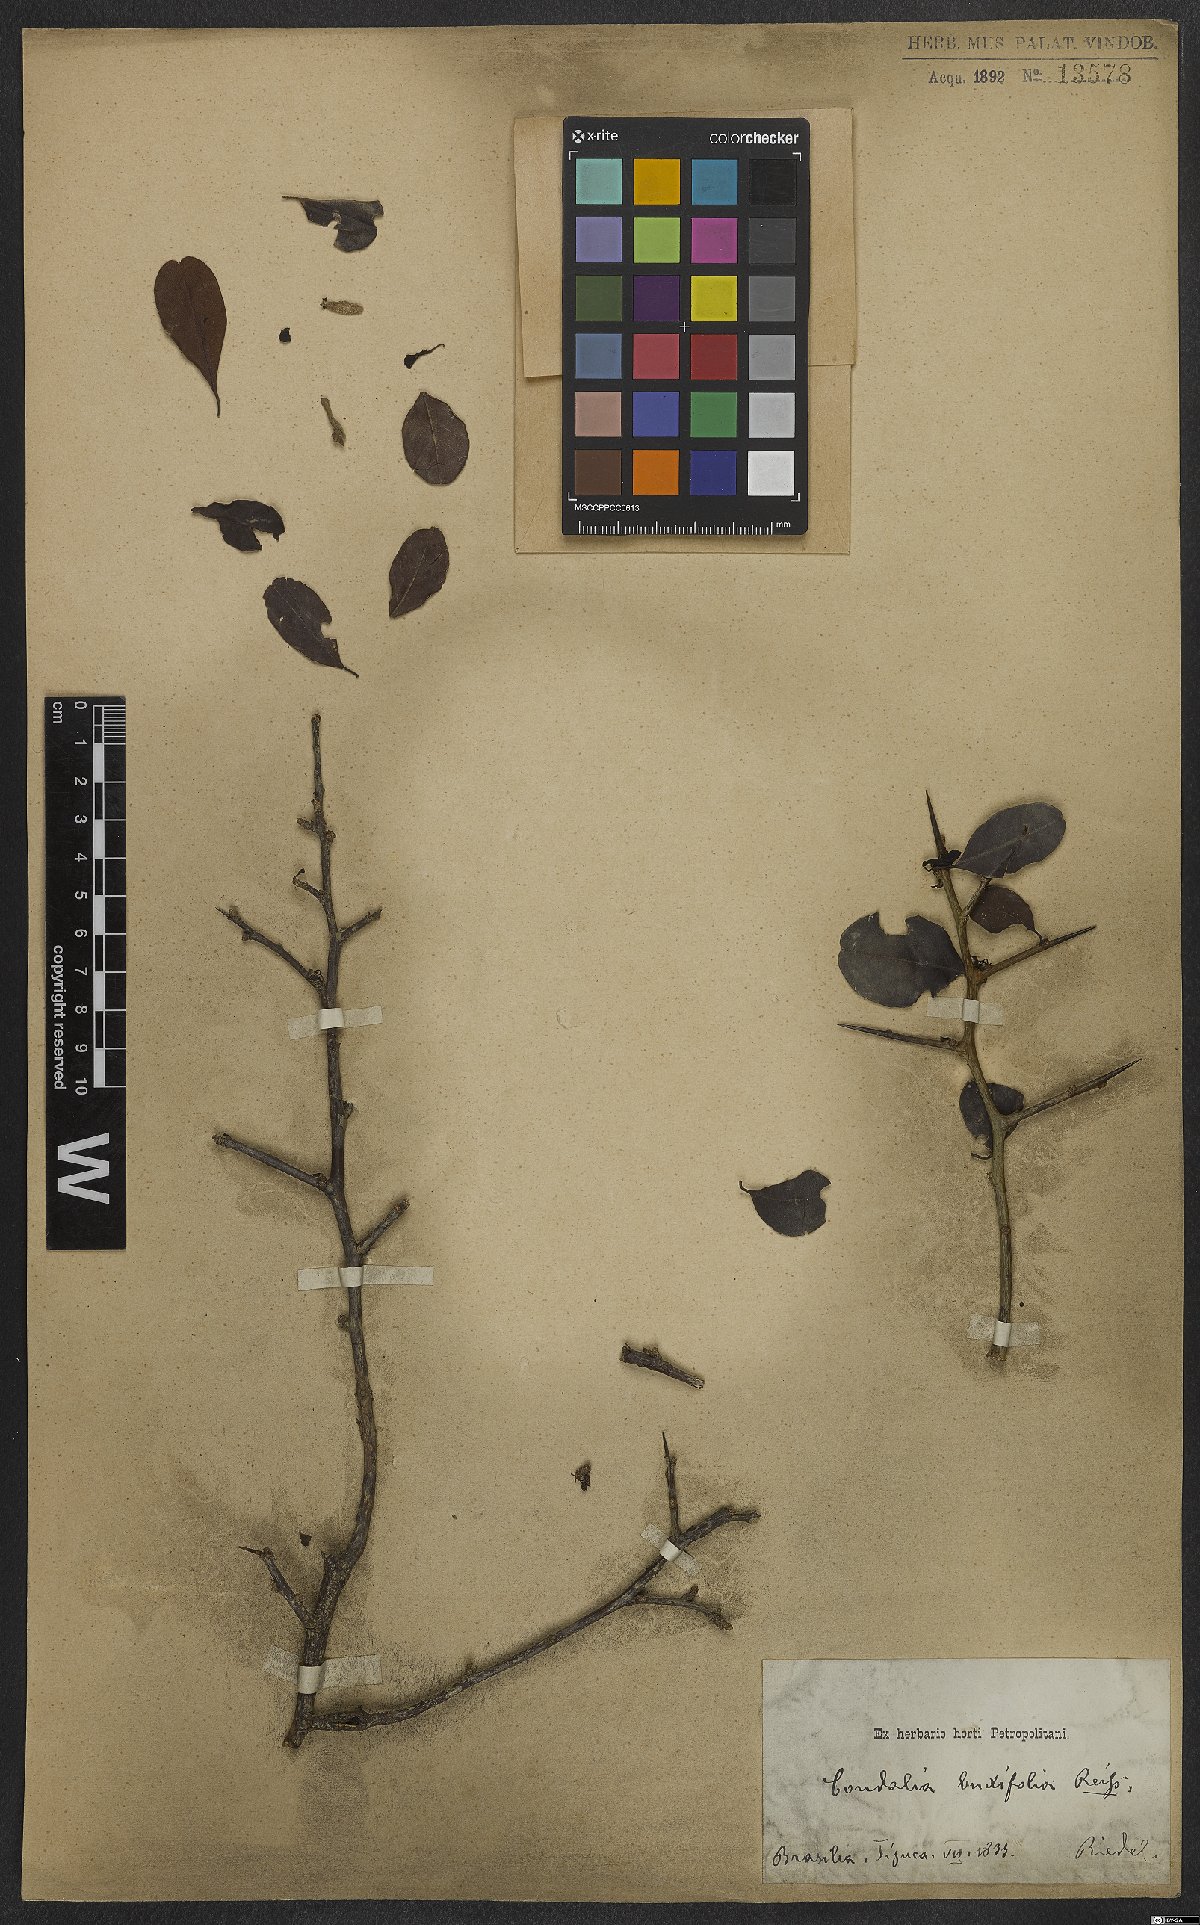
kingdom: Plantae
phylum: Tracheophyta
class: Magnoliopsida
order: Rosales
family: Rhamnaceae
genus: Condalia
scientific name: Condalia buxifolia
